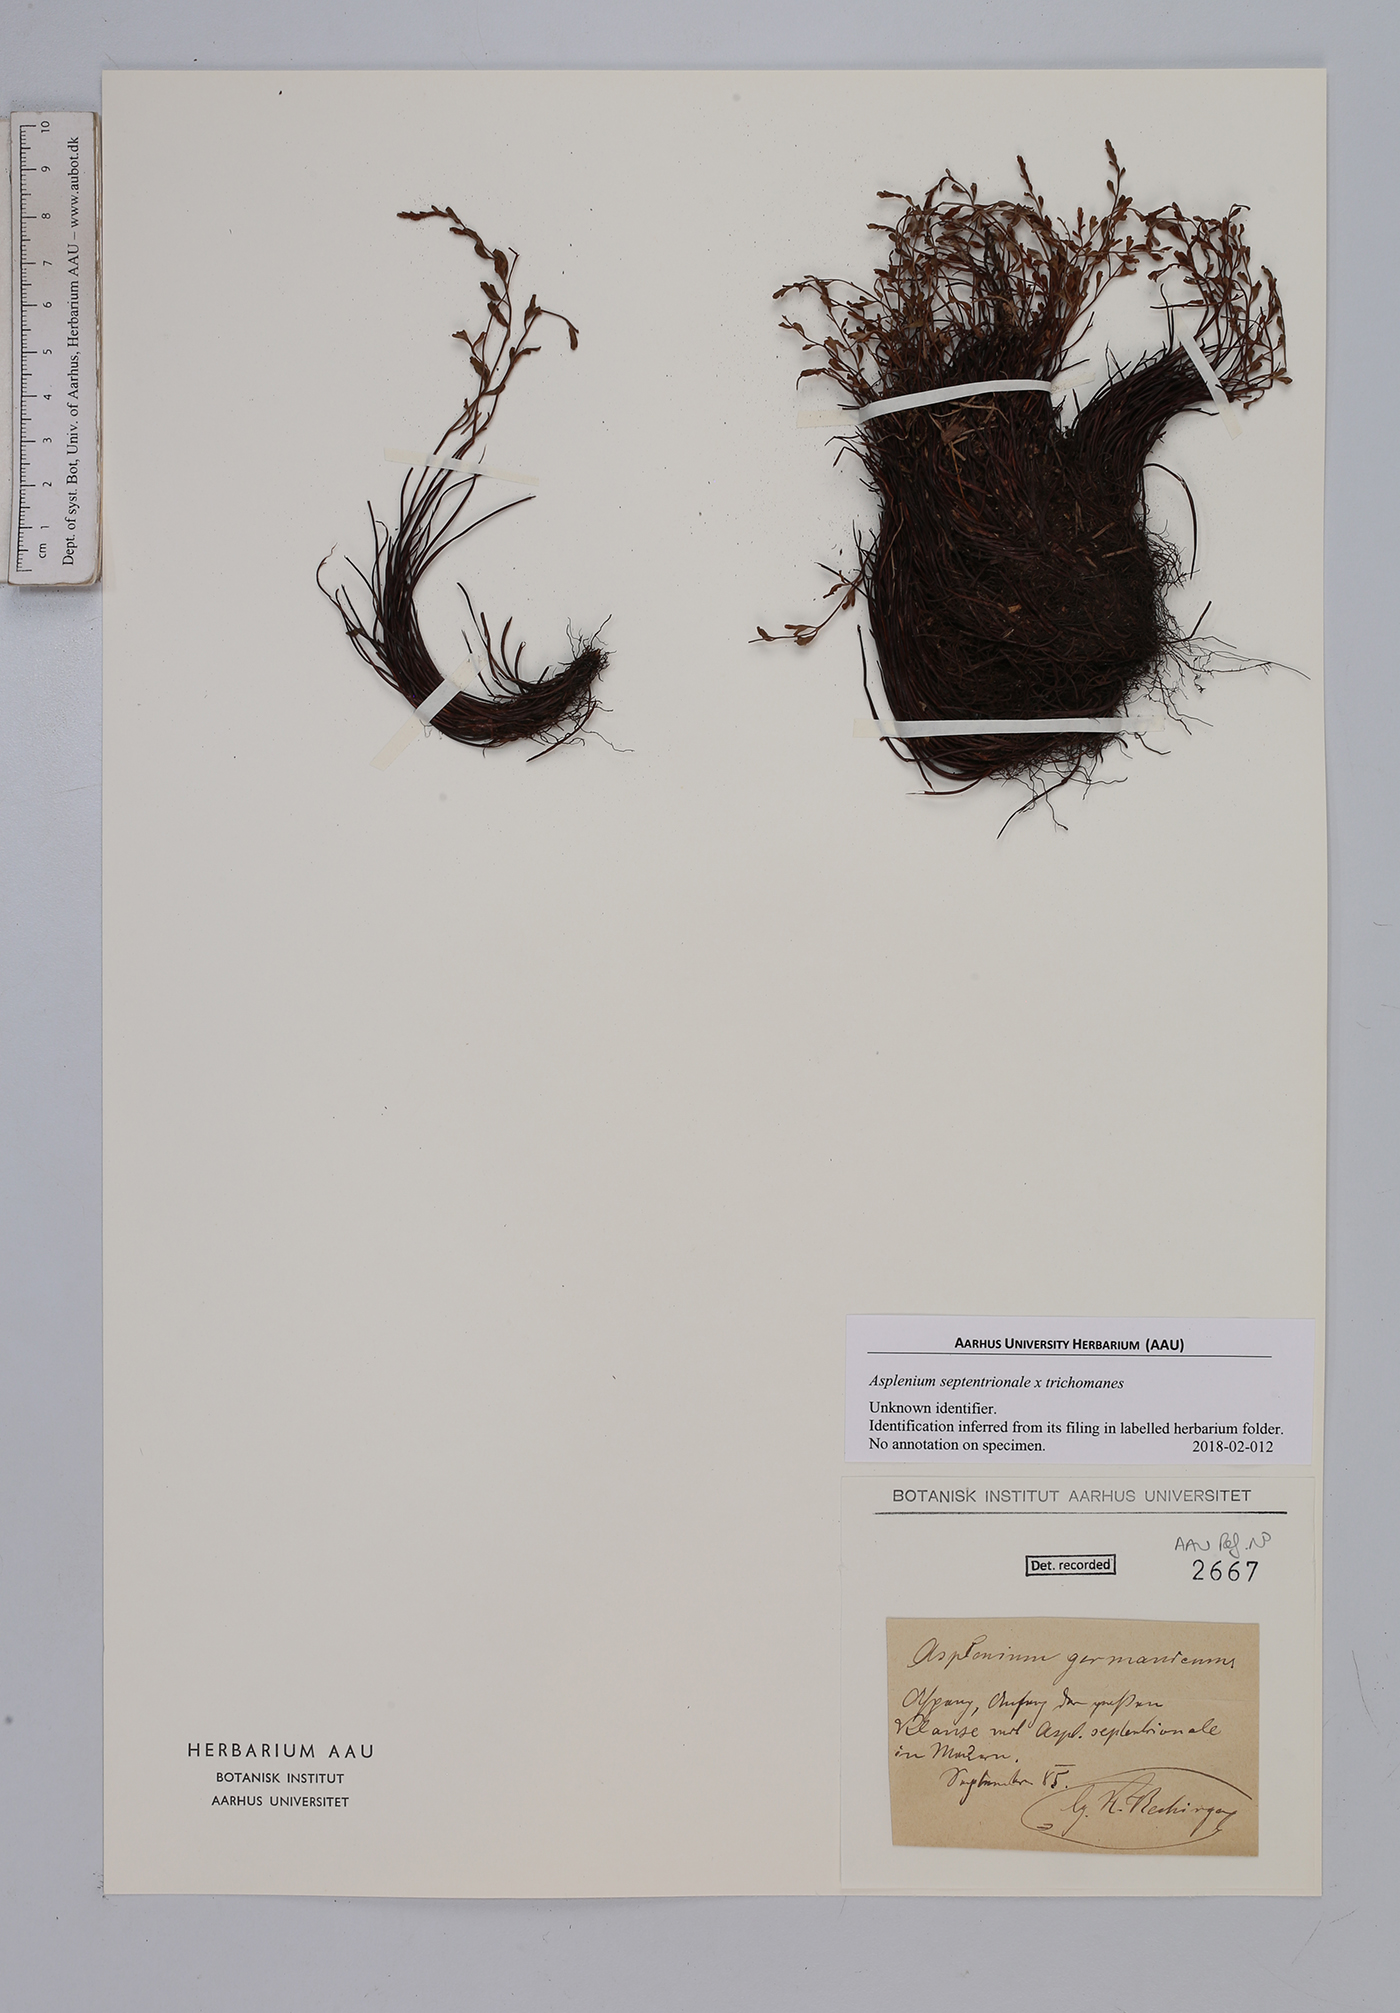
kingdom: Plantae
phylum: Tracheophyta
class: Polypodiopsida
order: Polypodiales
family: Aspleniaceae
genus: Asplenium
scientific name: Asplenium
